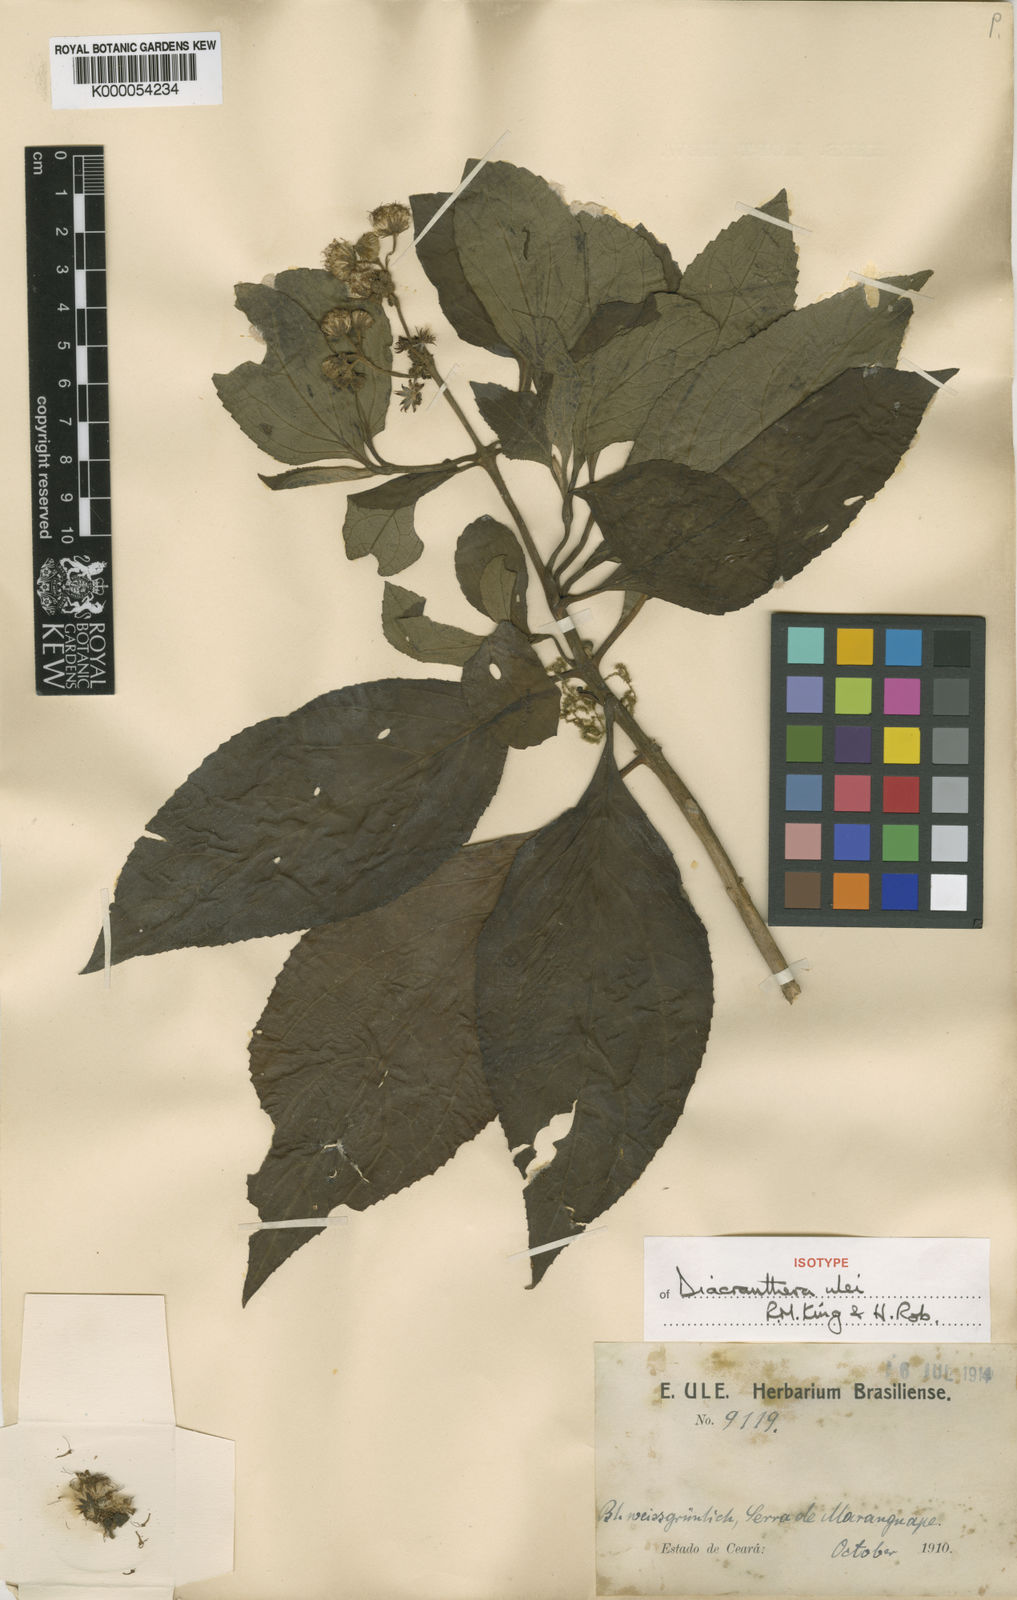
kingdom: Plantae
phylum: Tracheophyta
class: Magnoliopsida
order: Asterales
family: Asteraceae
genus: Diacranthera
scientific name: Diacranthera ulei
